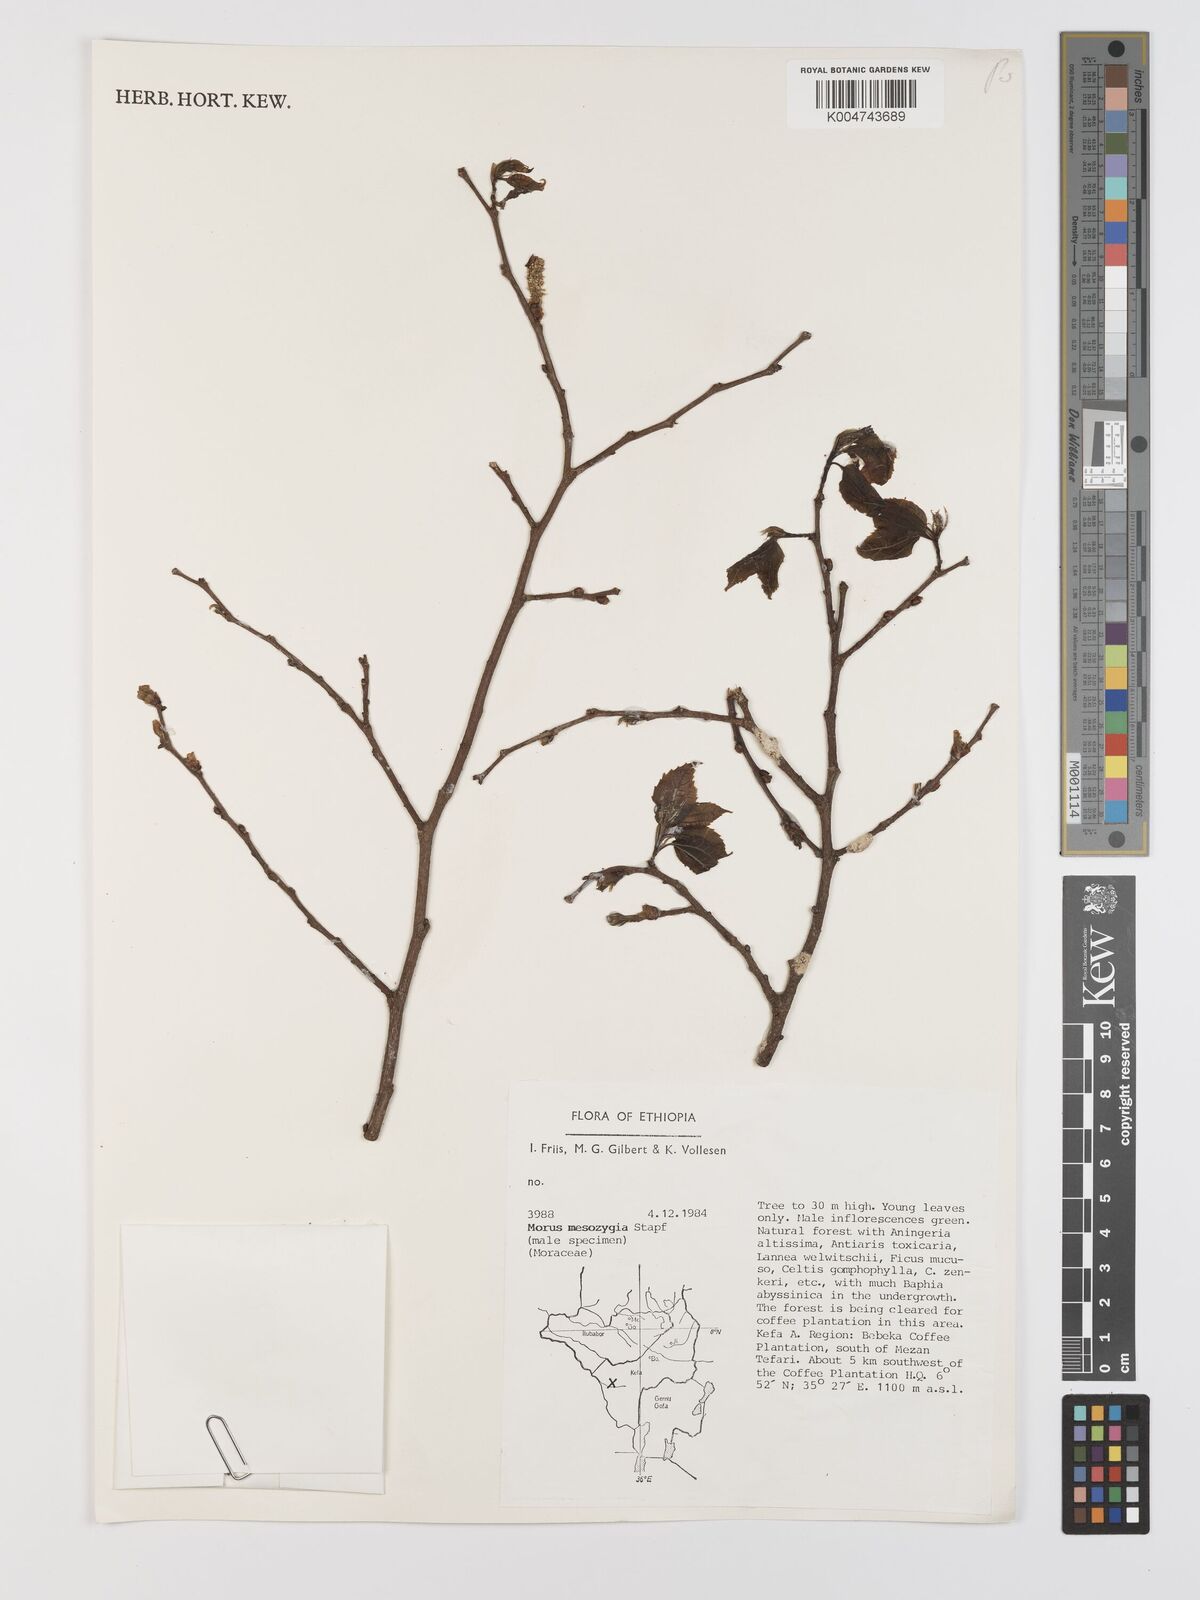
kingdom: Plantae
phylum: Tracheophyta
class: Magnoliopsida
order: Rosales
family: Moraceae
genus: Afromorus
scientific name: Afromorus mesozygia
